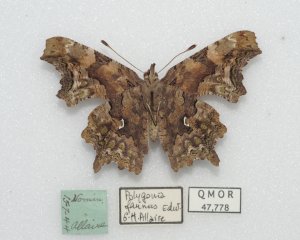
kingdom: Animalia
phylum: Arthropoda
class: Insecta
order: Lepidoptera
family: Nymphalidae
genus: Polygonia
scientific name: Polygonia faunus
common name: Green Comma
